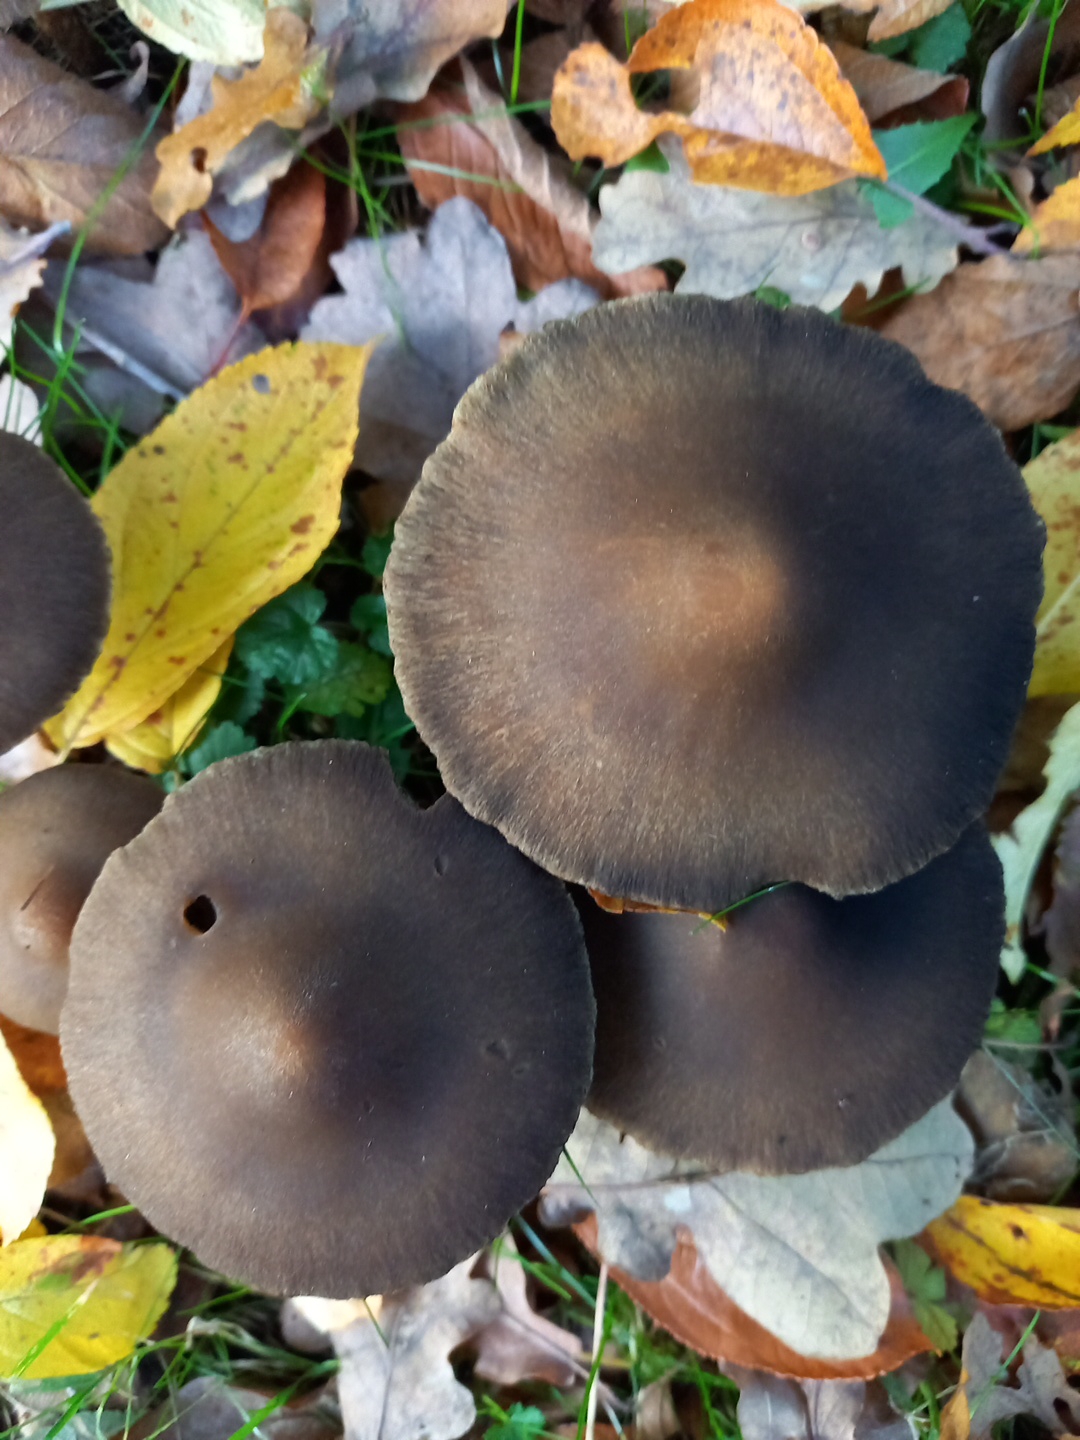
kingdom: Fungi
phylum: Basidiomycota
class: Agaricomycetes
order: Agaricales
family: Psathyrellaceae
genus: Lacrymaria
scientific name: Lacrymaria lacrymabunda
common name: grædende mørkhat
